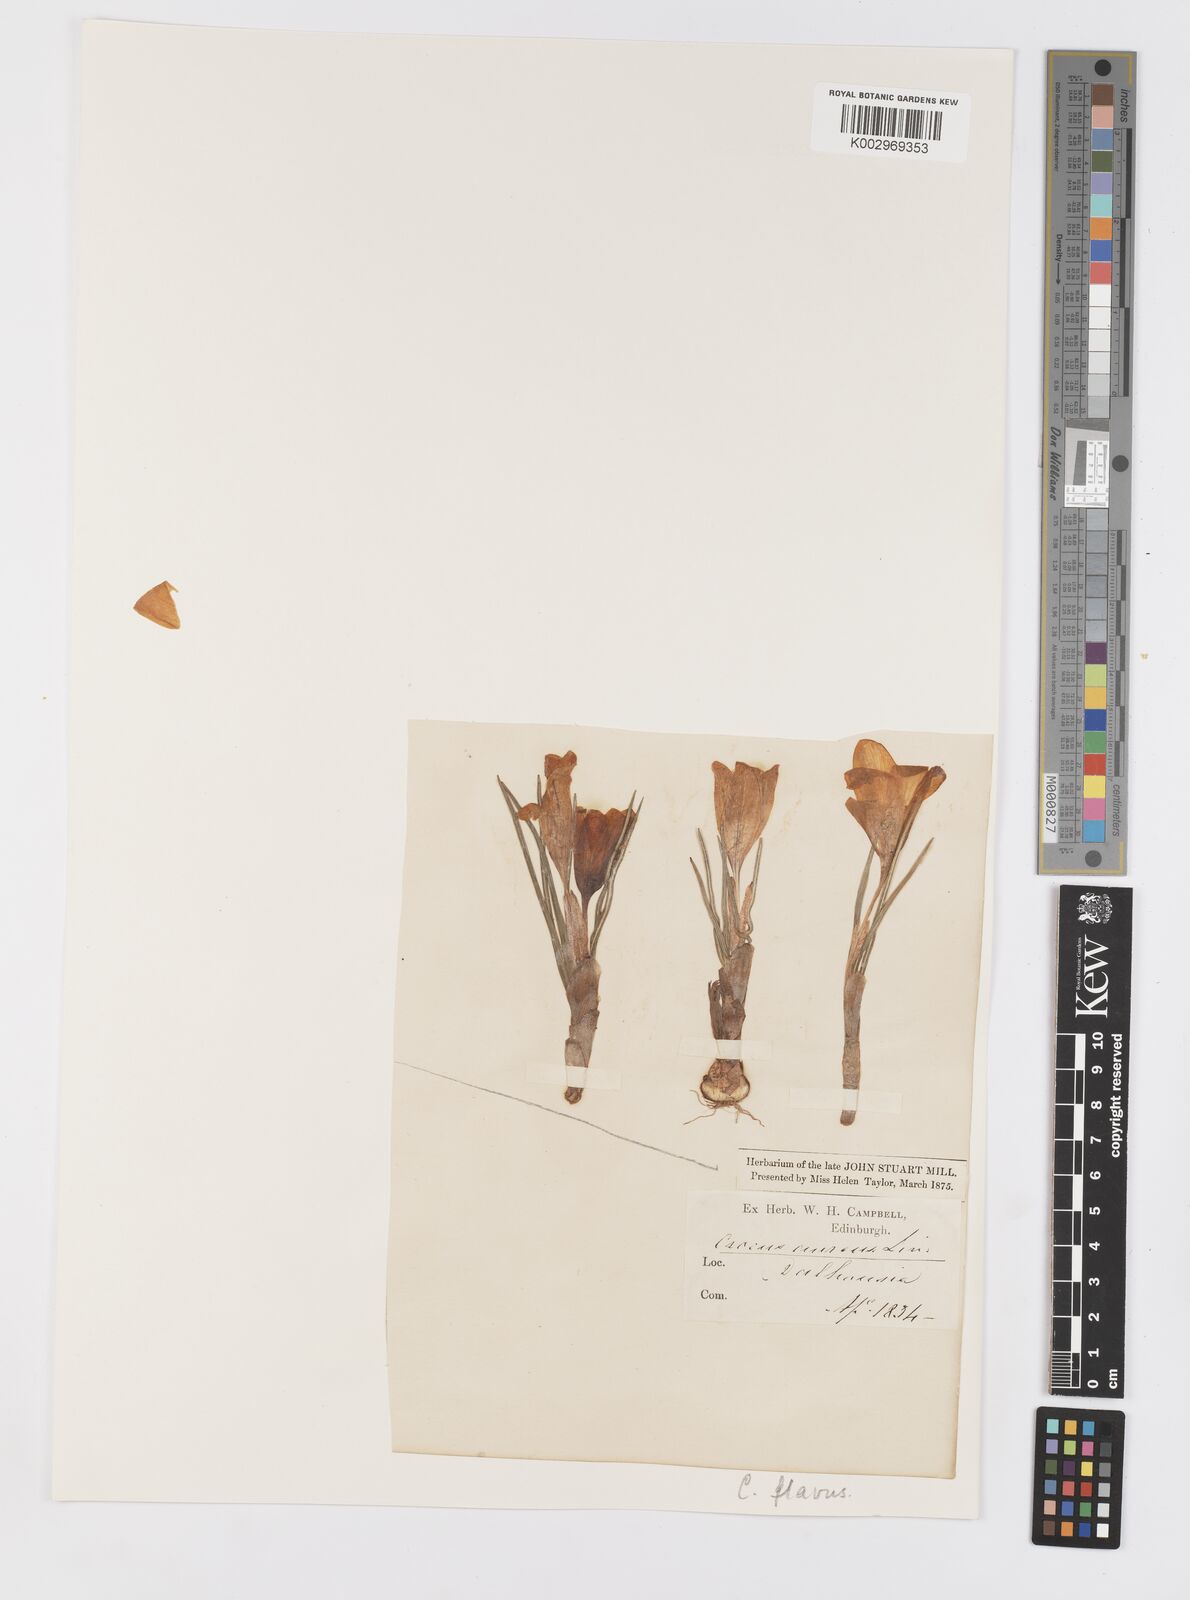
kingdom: Plantae
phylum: Tracheophyta
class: Liliopsida
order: Asparagales
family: Iridaceae
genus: Crocus
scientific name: Crocus flavus
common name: Yellow crocus
